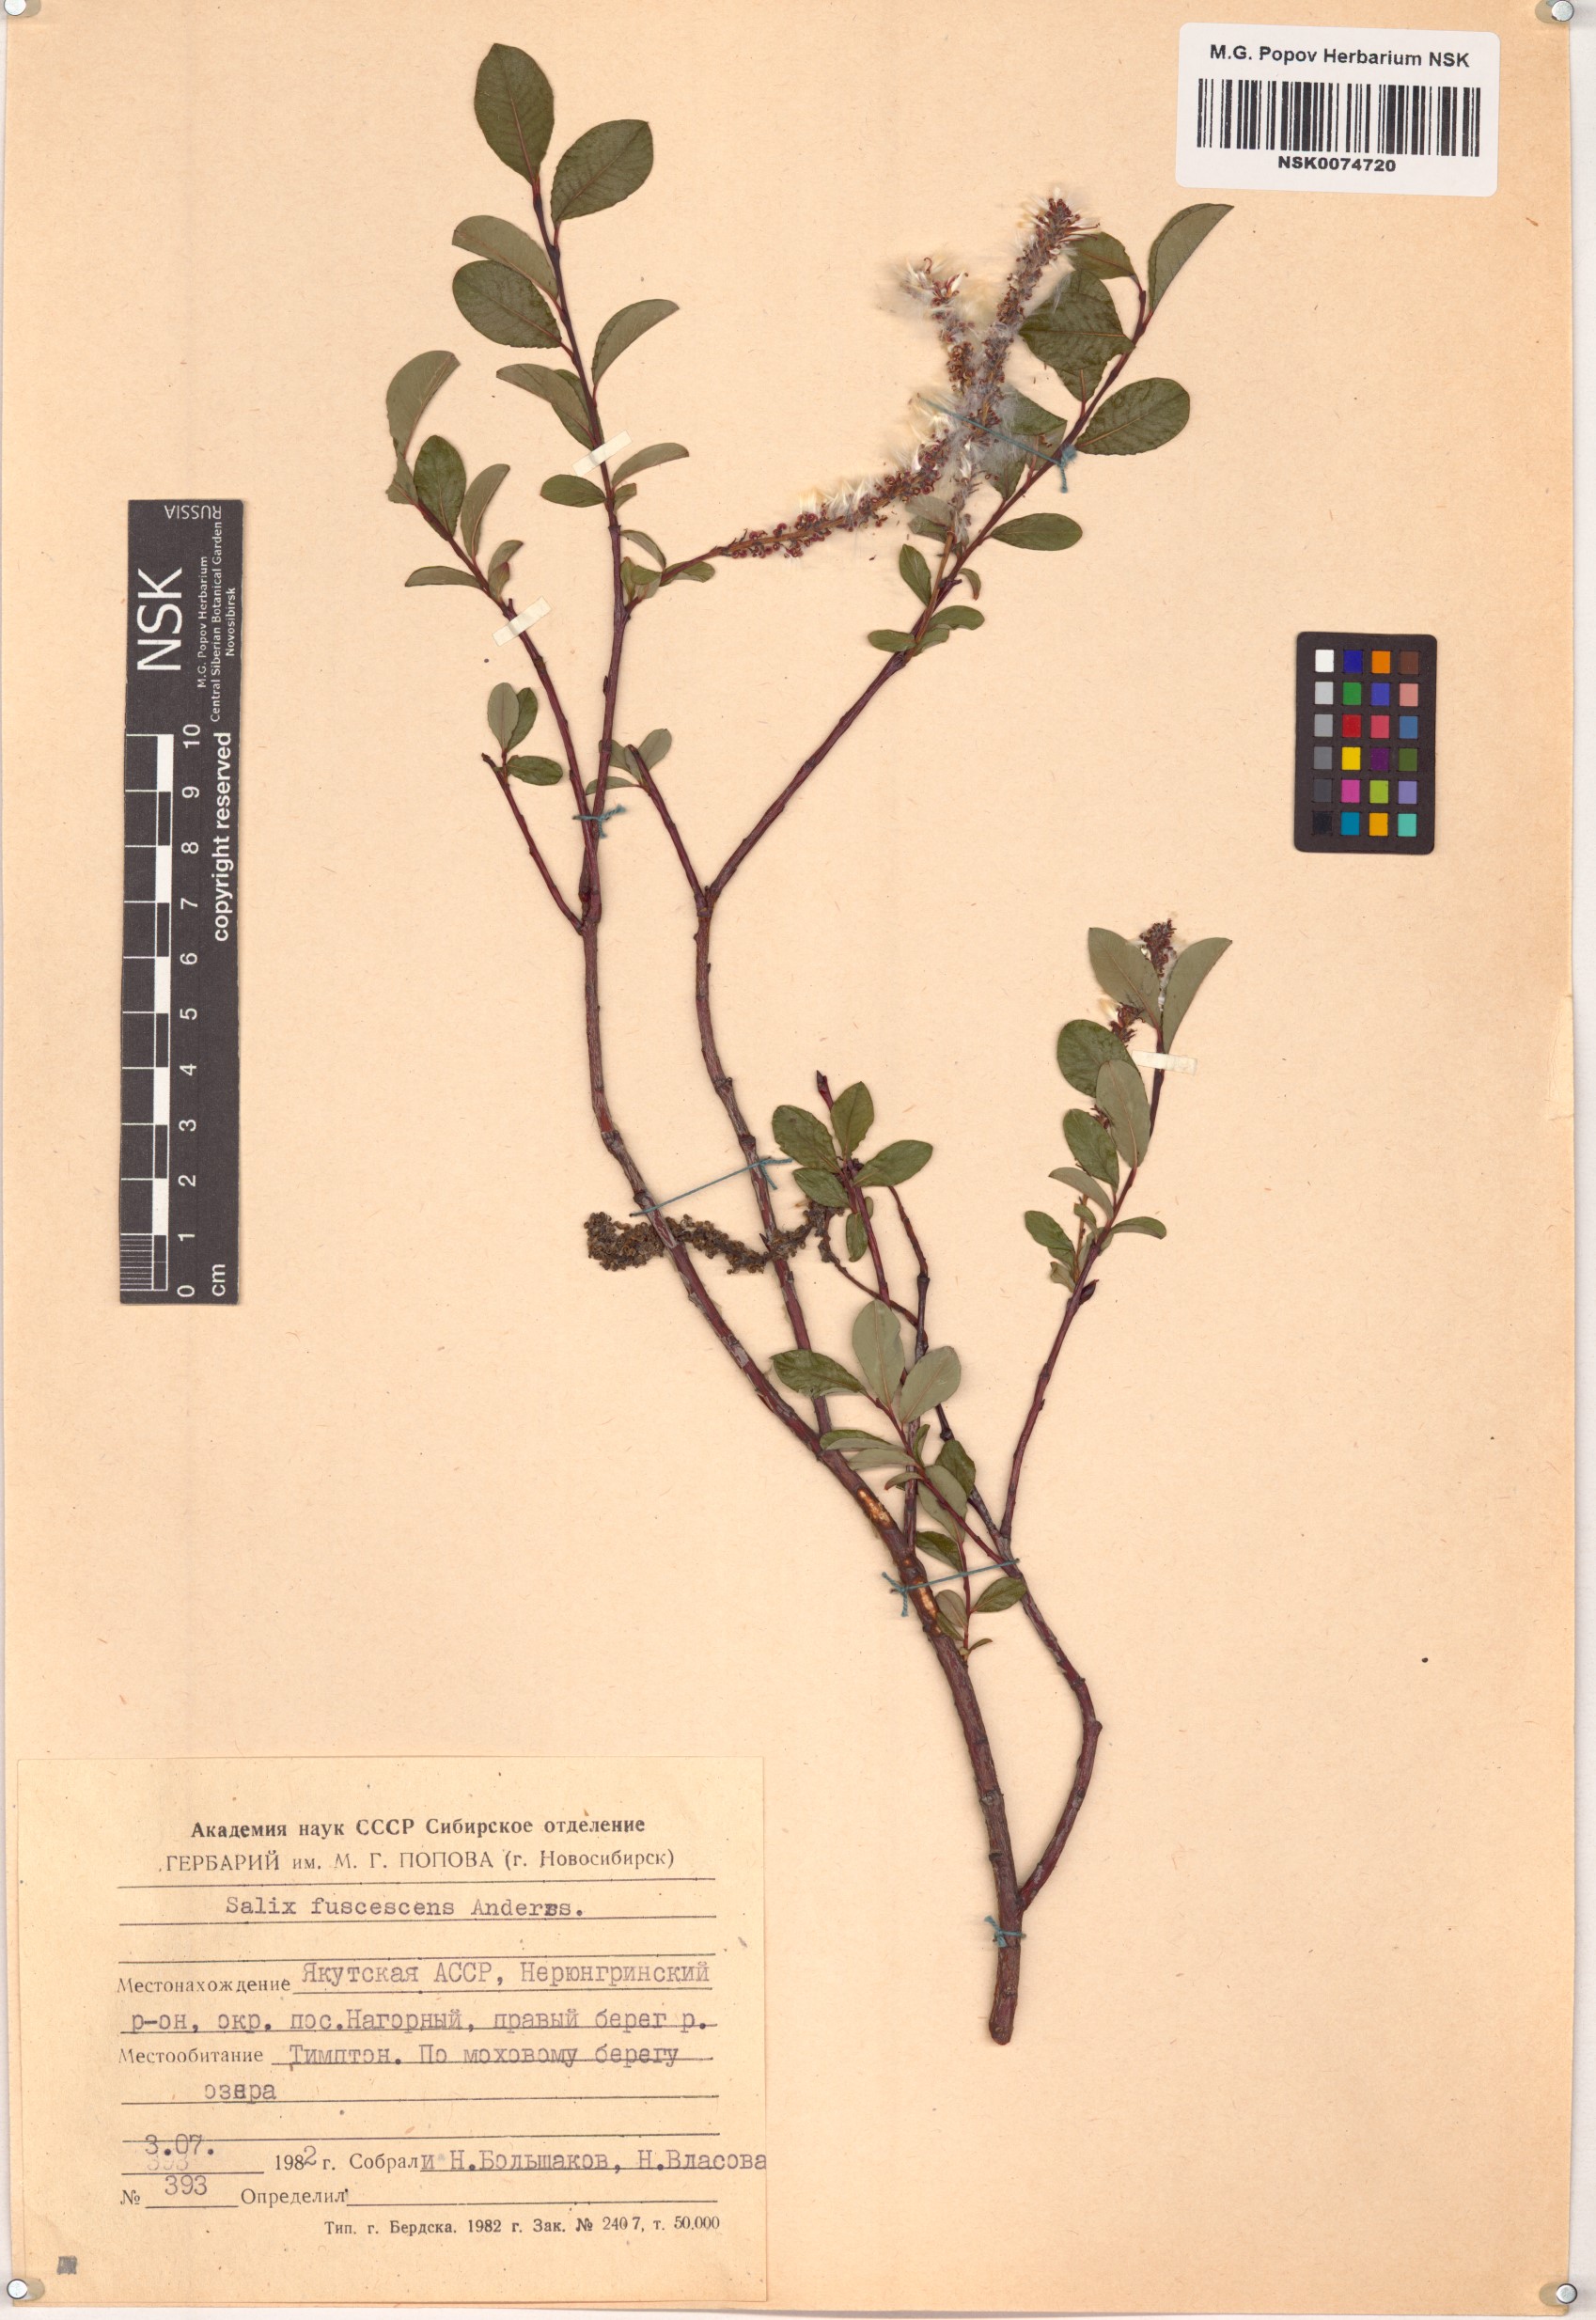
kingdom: Plantae
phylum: Tracheophyta
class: Magnoliopsida
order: Malpighiales
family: Salicaceae
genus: Salix
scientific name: Salix fuscescens
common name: Brownish willow
